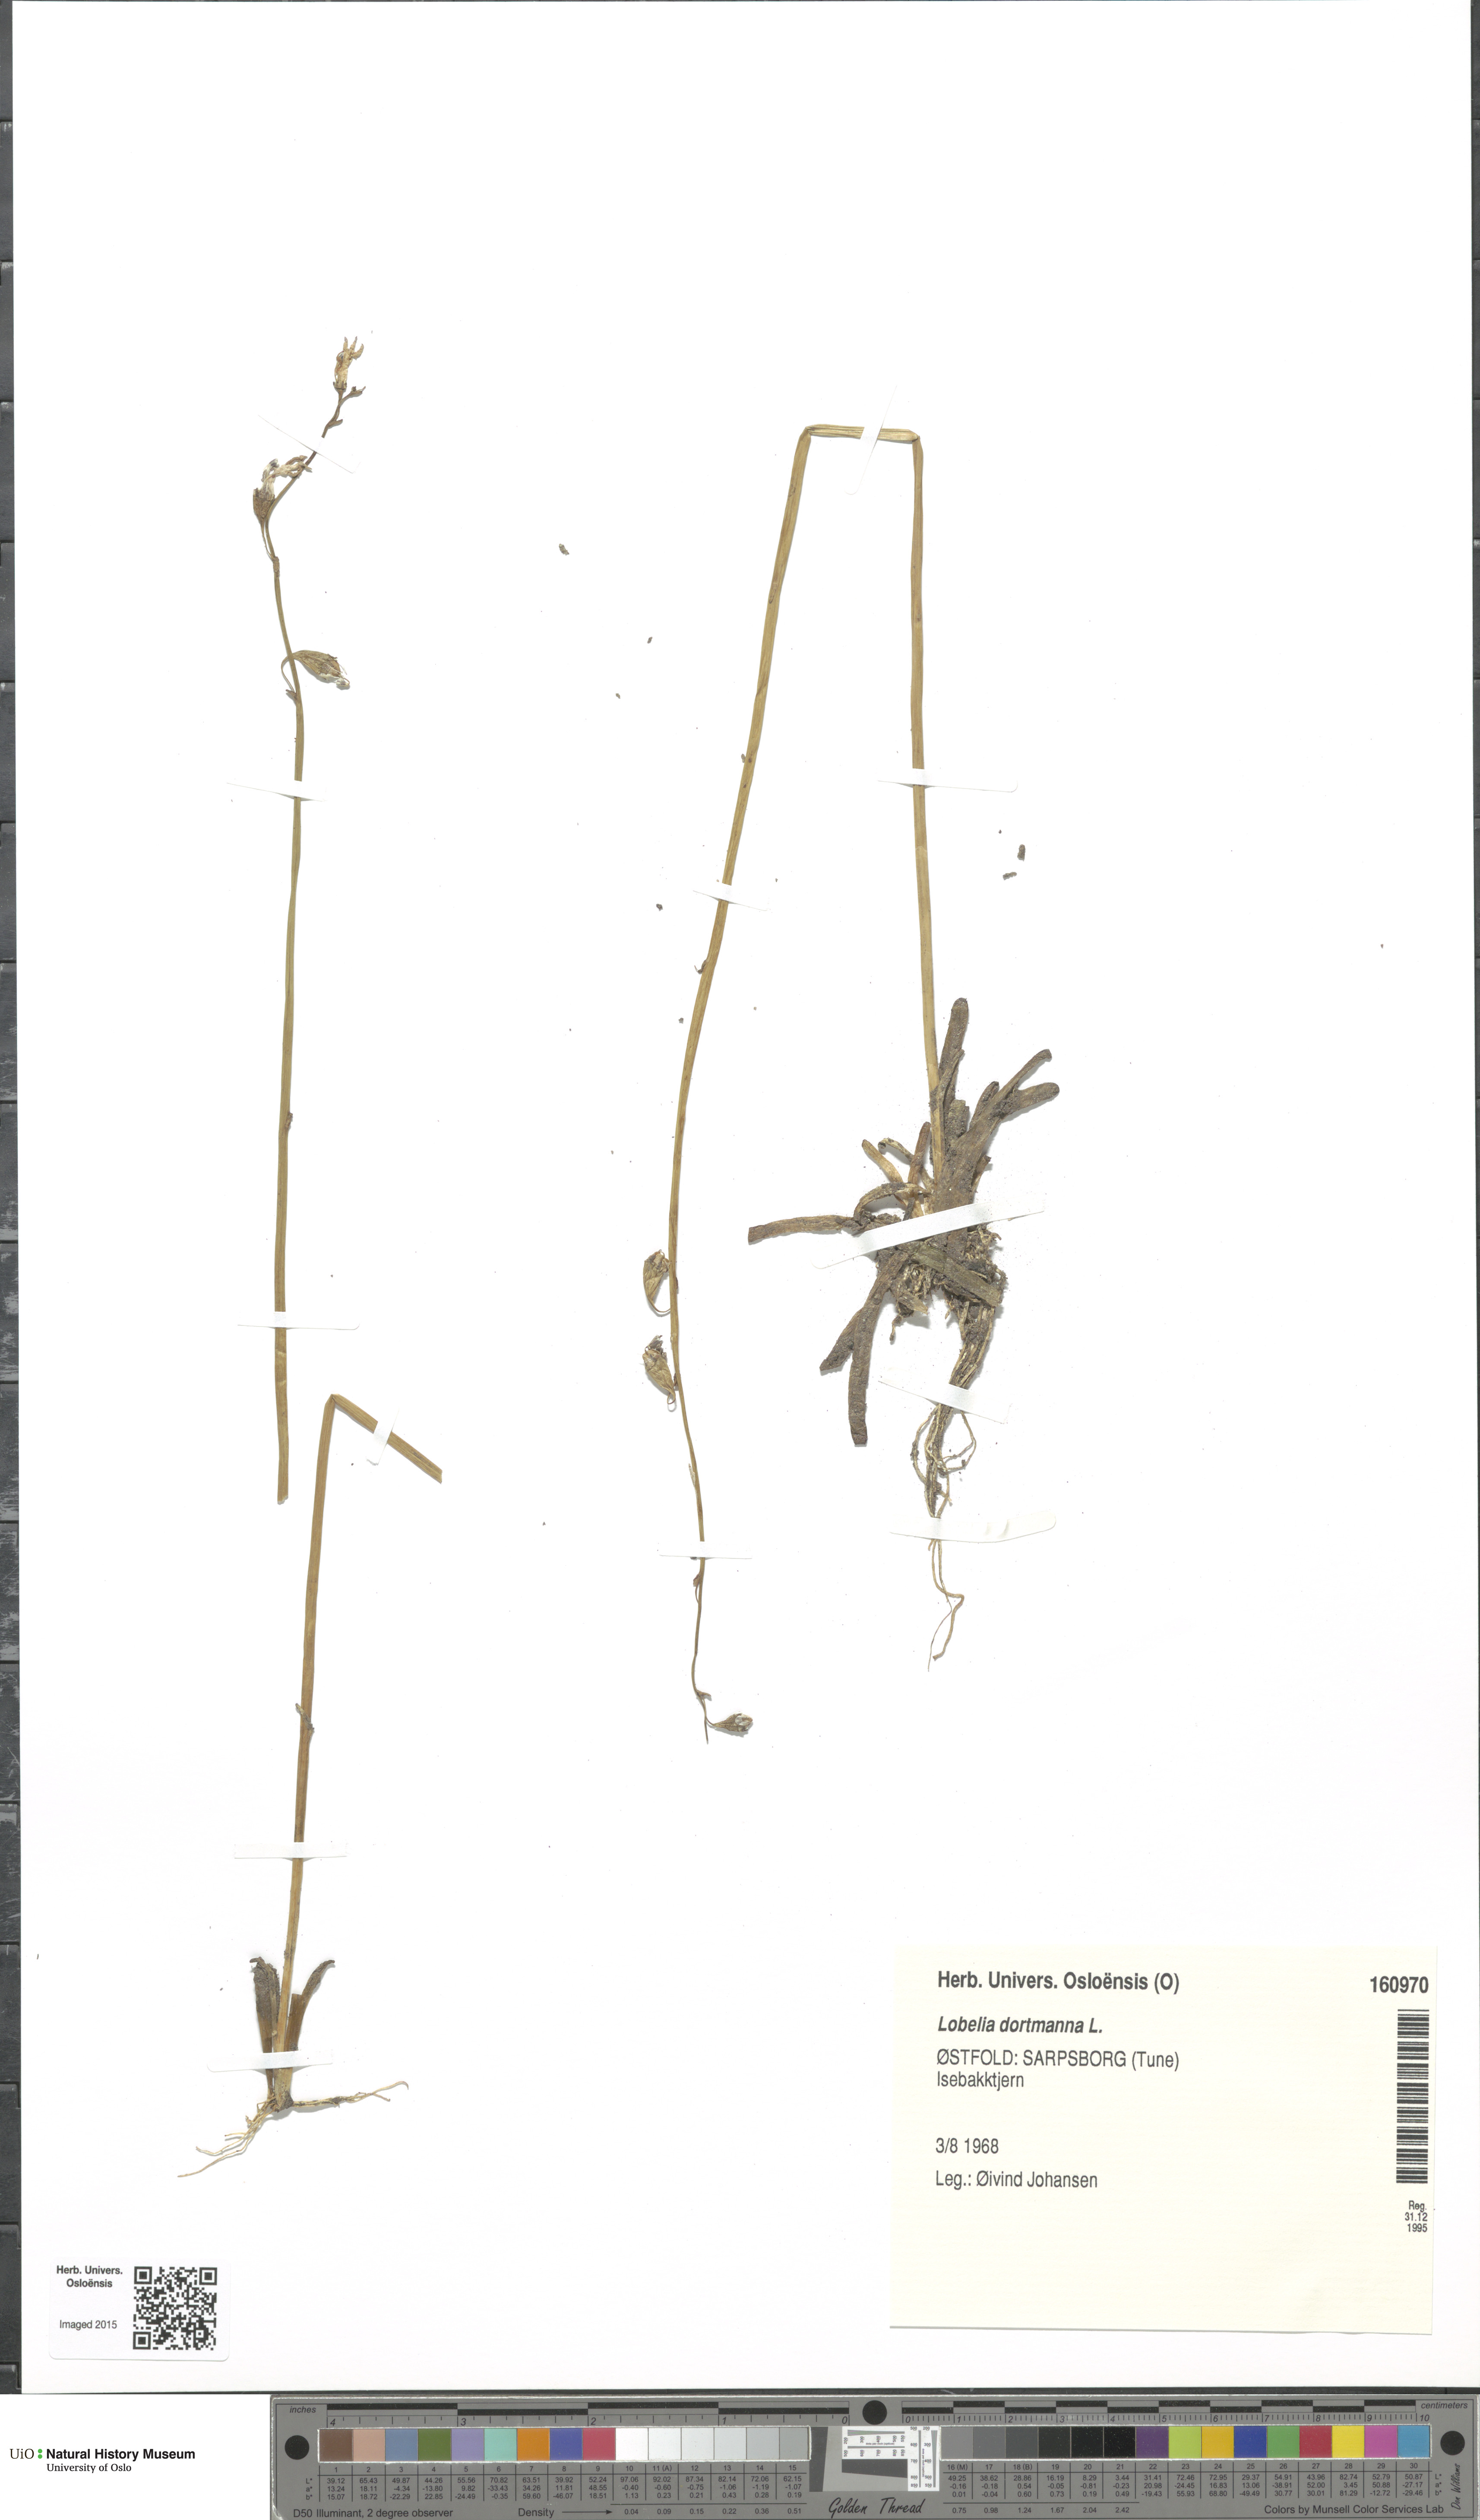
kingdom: Plantae
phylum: Tracheophyta
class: Magnoliopsida
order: Asterales
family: Campanulaceae
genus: Lobelia
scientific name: Lobelia dortmanna
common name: Water lobelia
